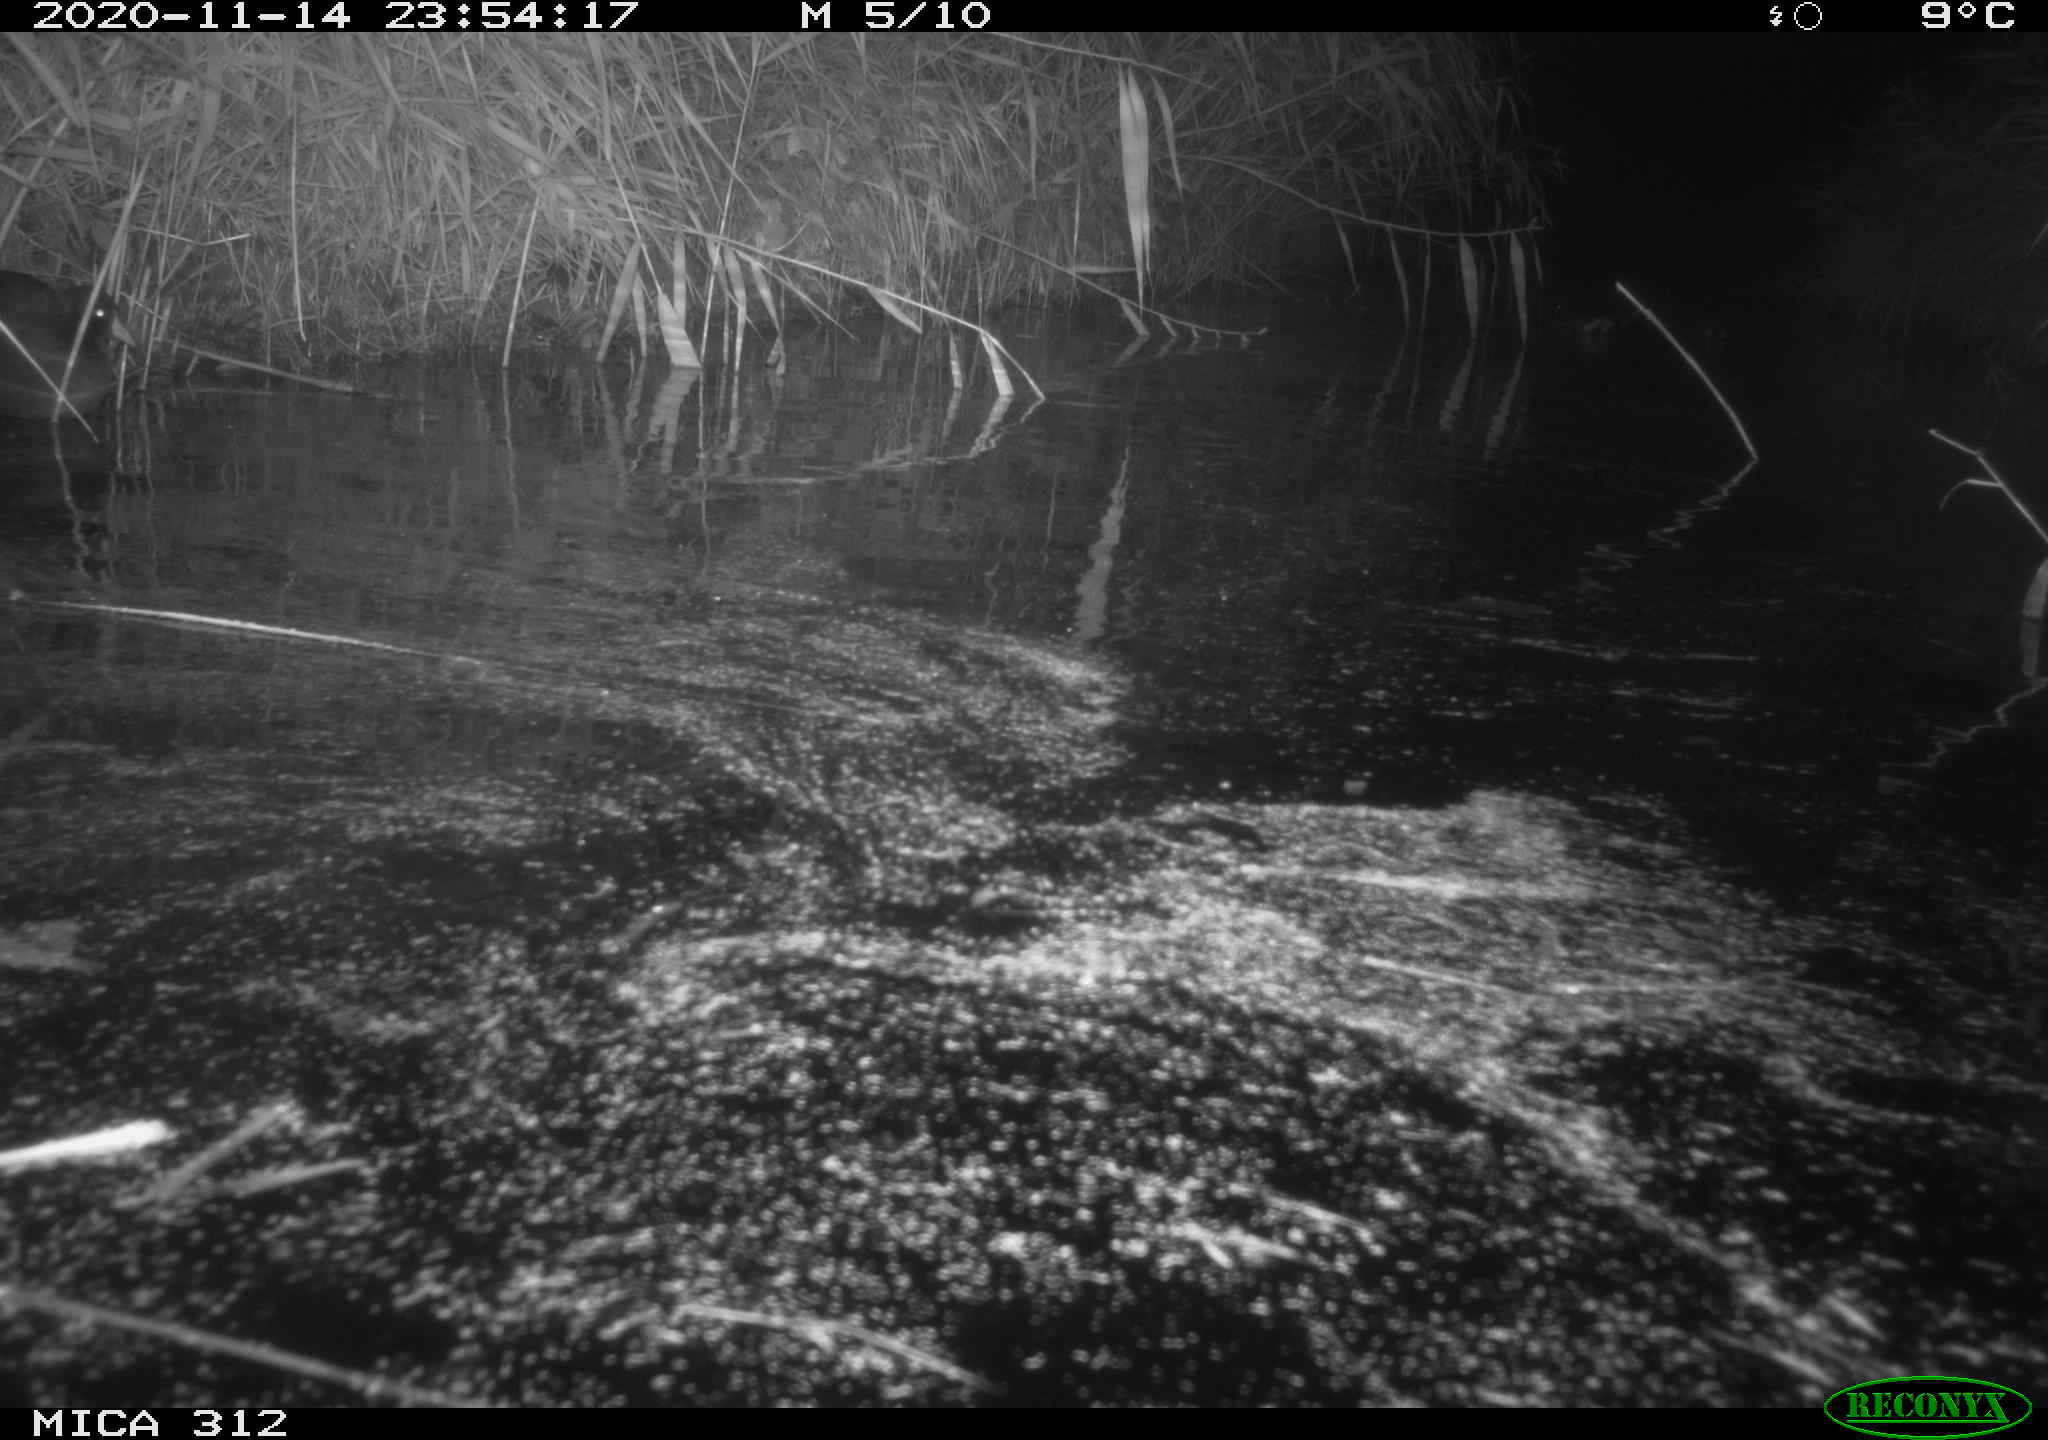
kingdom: Animalia
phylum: Chordata
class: Aves
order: Gruiformes
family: Rallidae
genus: Gallinula
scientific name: Gallinula chloropus
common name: Common moorhen
